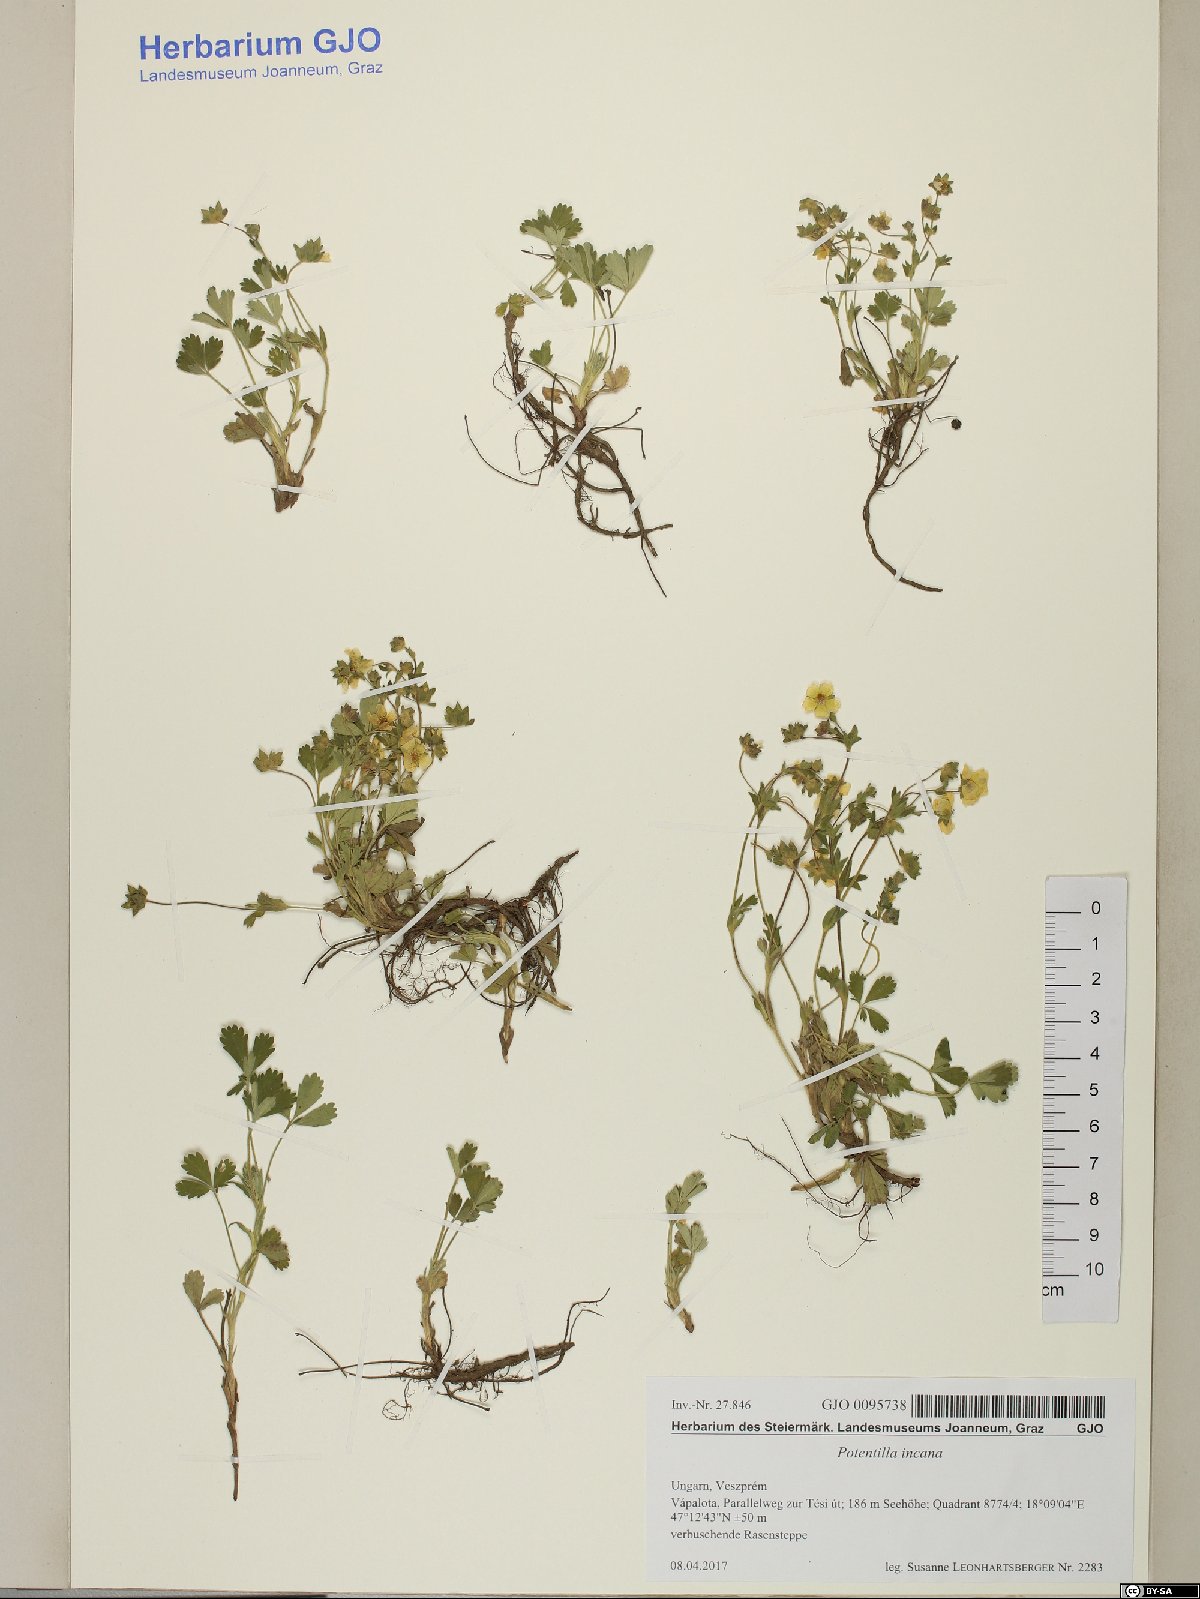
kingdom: Plantae
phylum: Tracheophyta
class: Magnoliopsida
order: Rosales
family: Rosaceae
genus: Potentilla
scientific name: Potentilla cinerea
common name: Ashy cinquefoil
